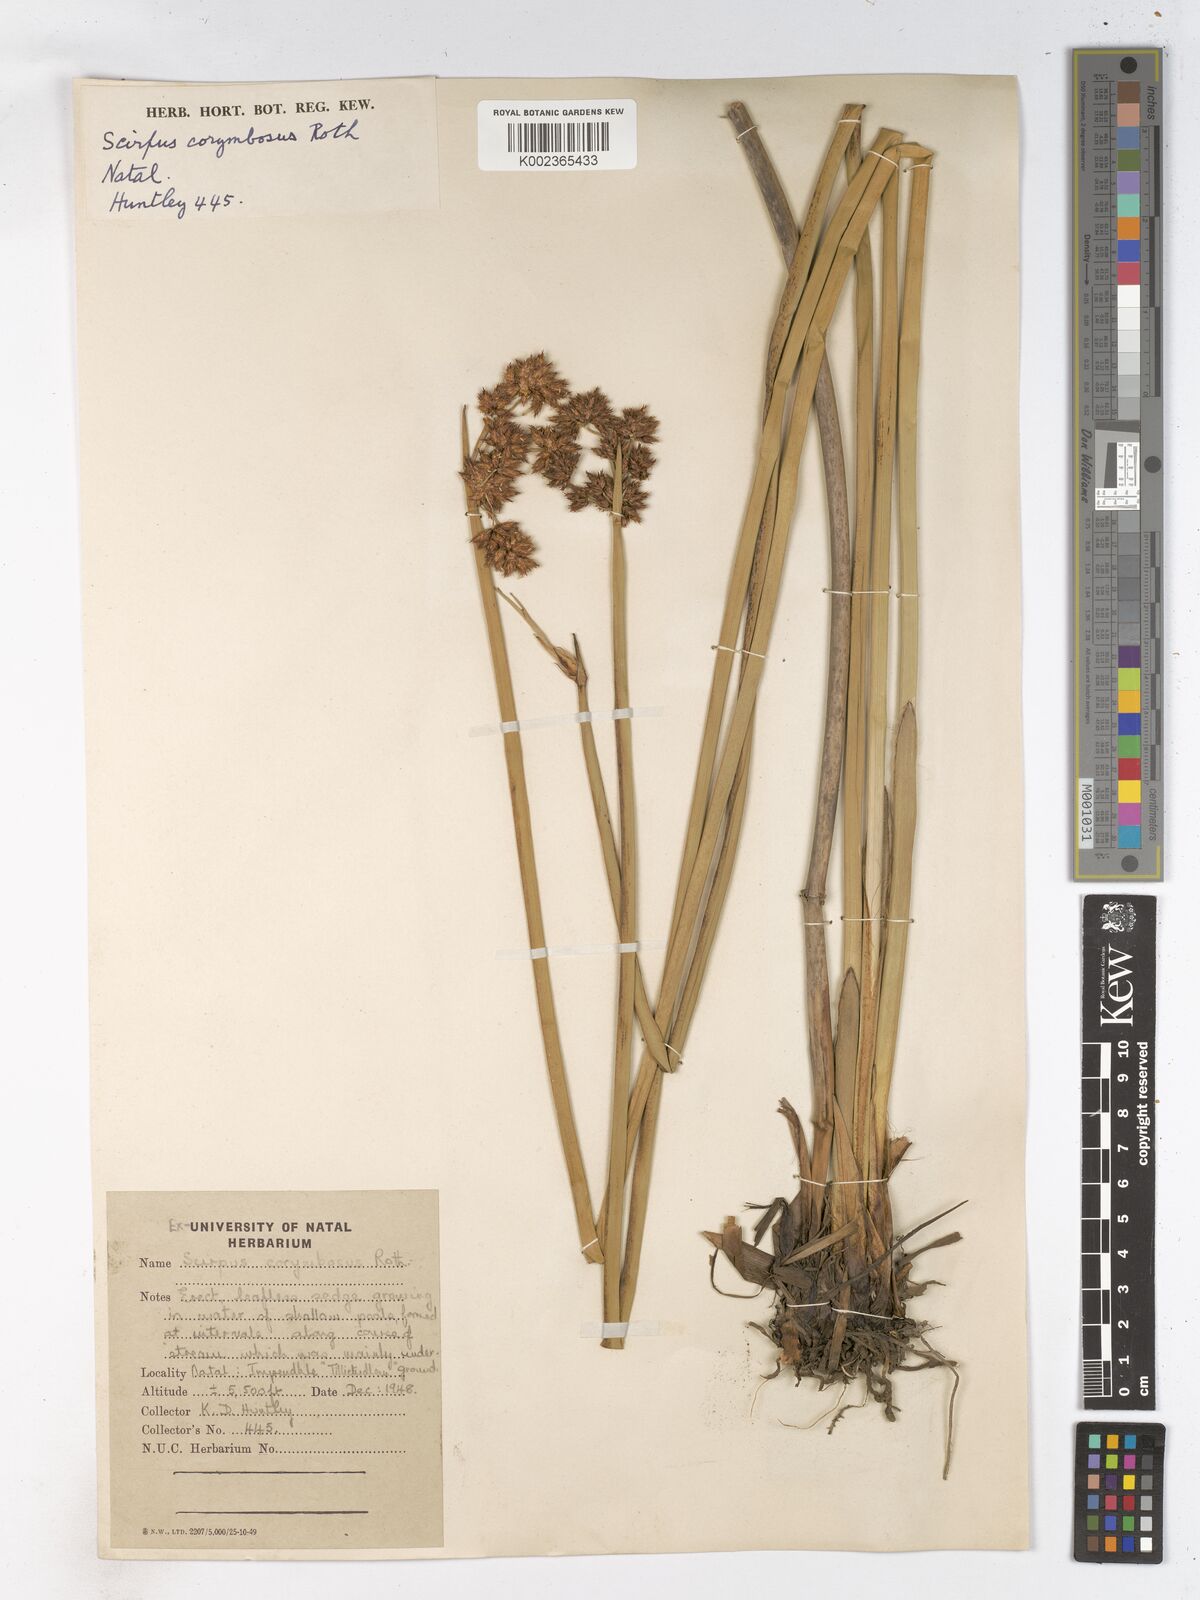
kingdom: Plantae
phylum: Tracheophyta
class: Liliopsida
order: Poales
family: Cyperaceae
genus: Schoenoplectiella
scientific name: Schoenoplectiella brachyceras
